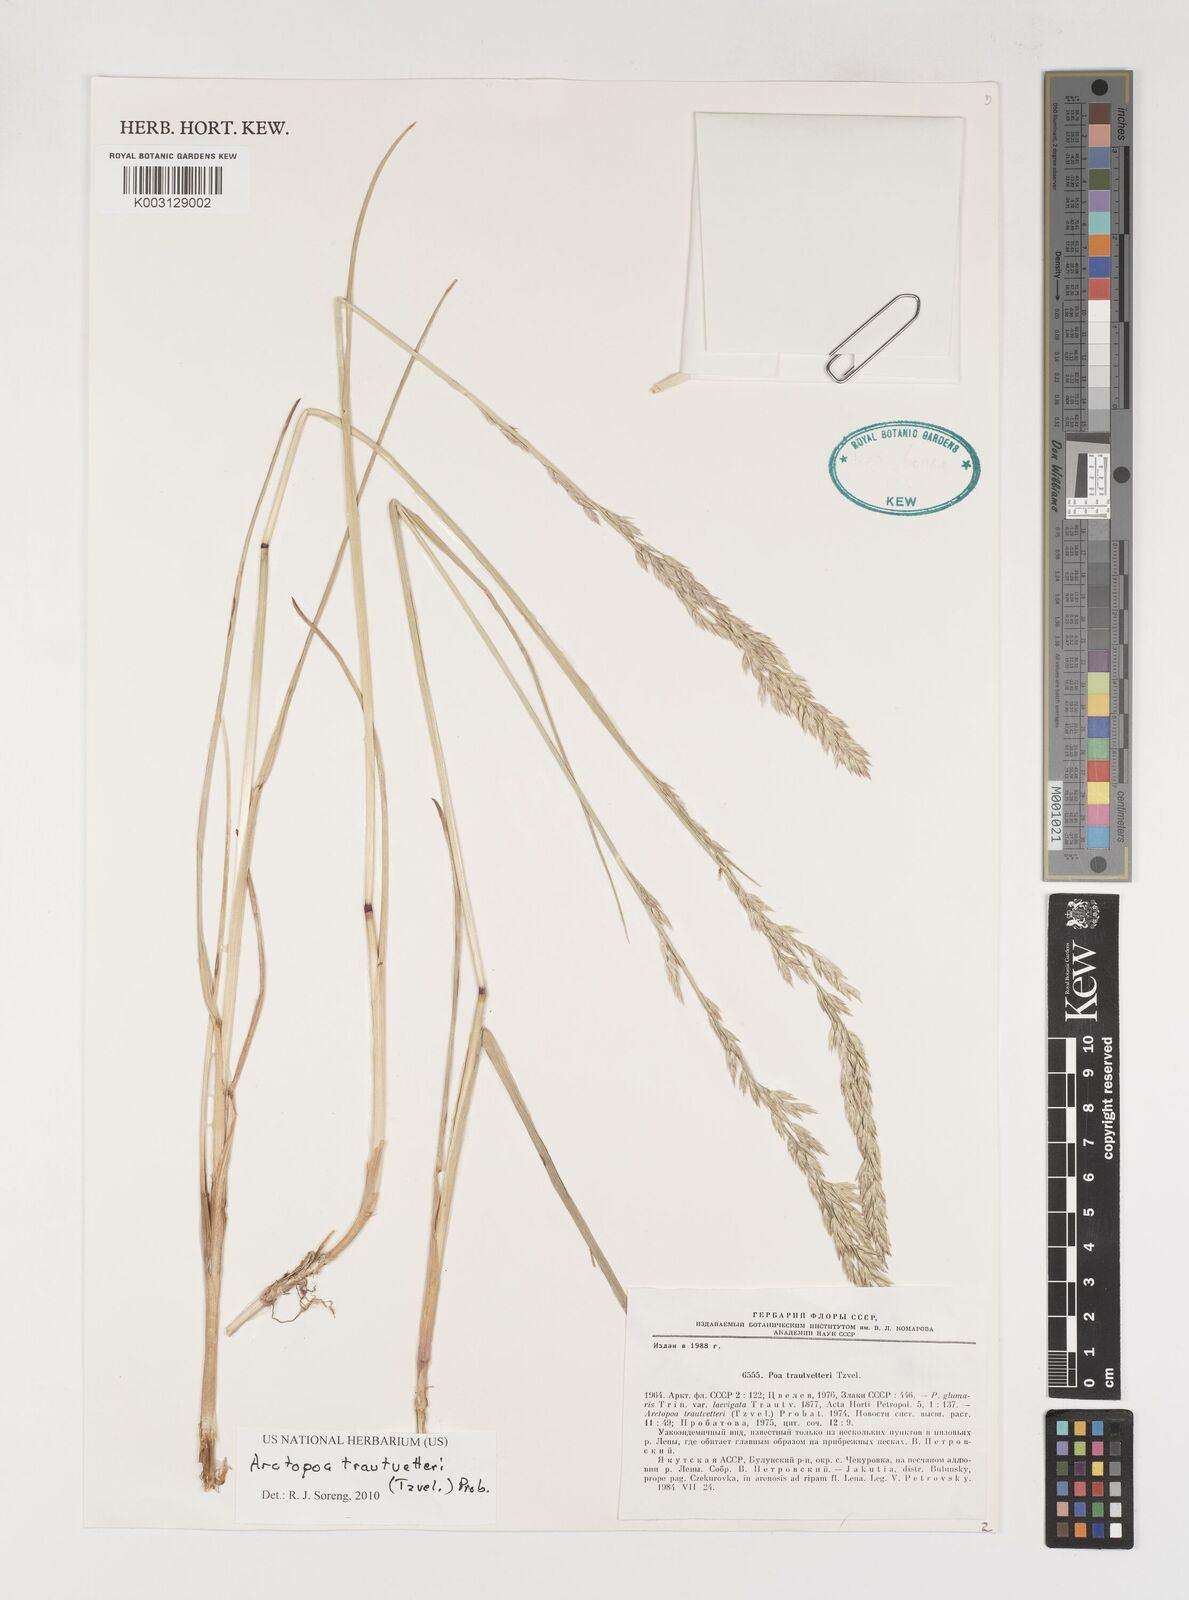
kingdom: Plantae
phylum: Tracheophyta
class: Liliopsida
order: Poales
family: Poaceae
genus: Poa
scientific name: Poa
